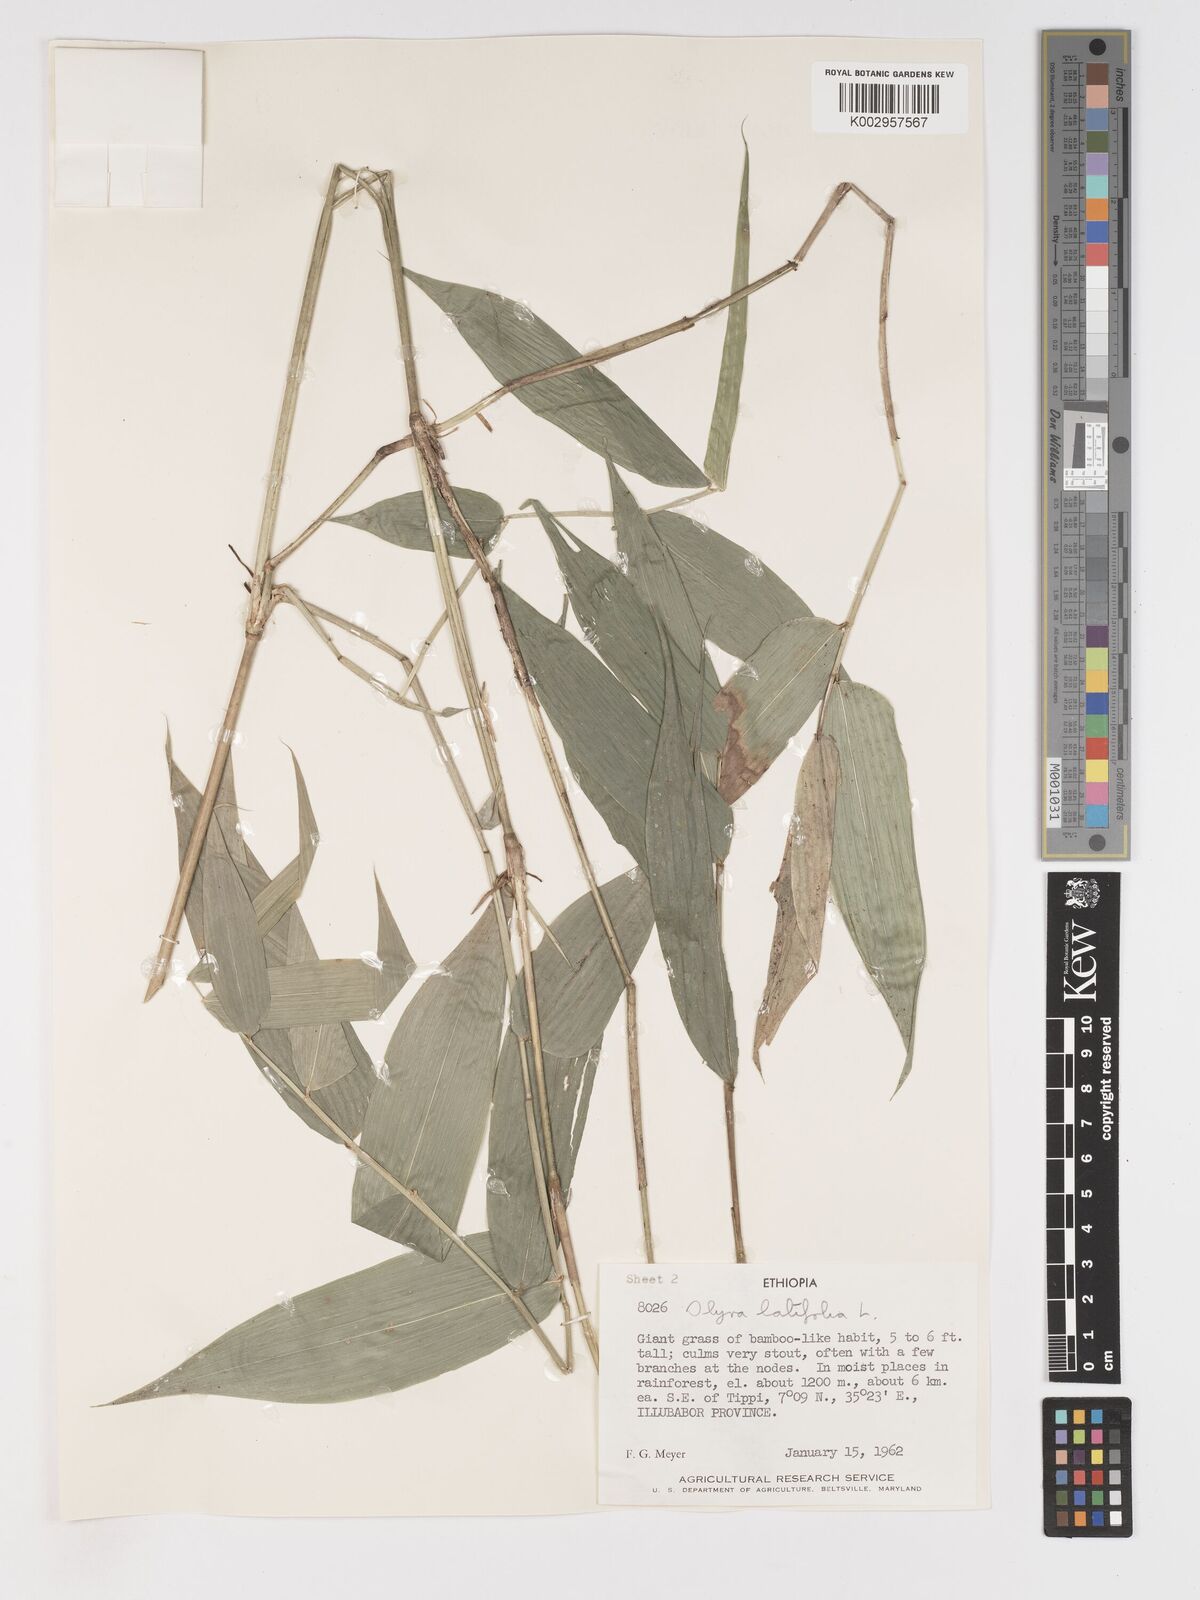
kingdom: Plantae
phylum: Tracheophyta
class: Liliopsida
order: Poales
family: Poaceae
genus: Olyra
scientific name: Olyra latifolia
